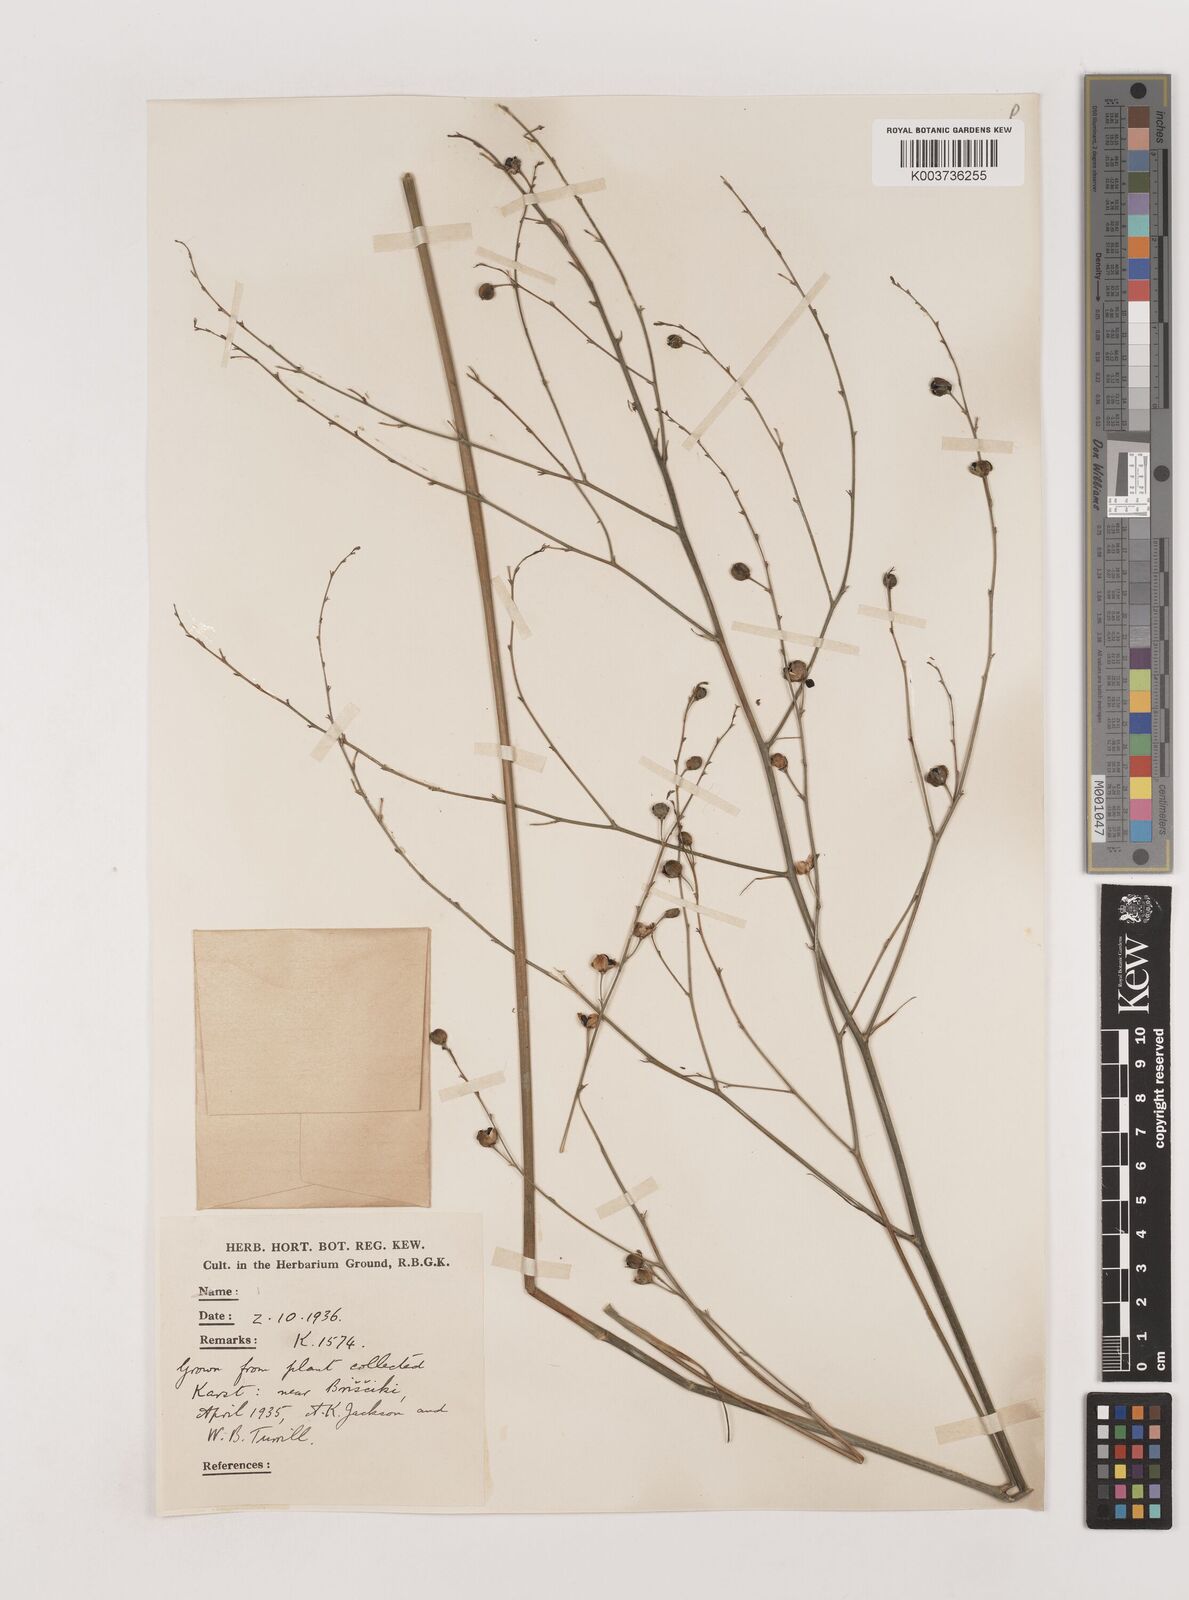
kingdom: Plantae
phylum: Tracheophyta
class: Liliopsida
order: Asparagales
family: Asparagaceae
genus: Anthericum
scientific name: Anthericum ramosum
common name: Branched st. bernard's-lily
